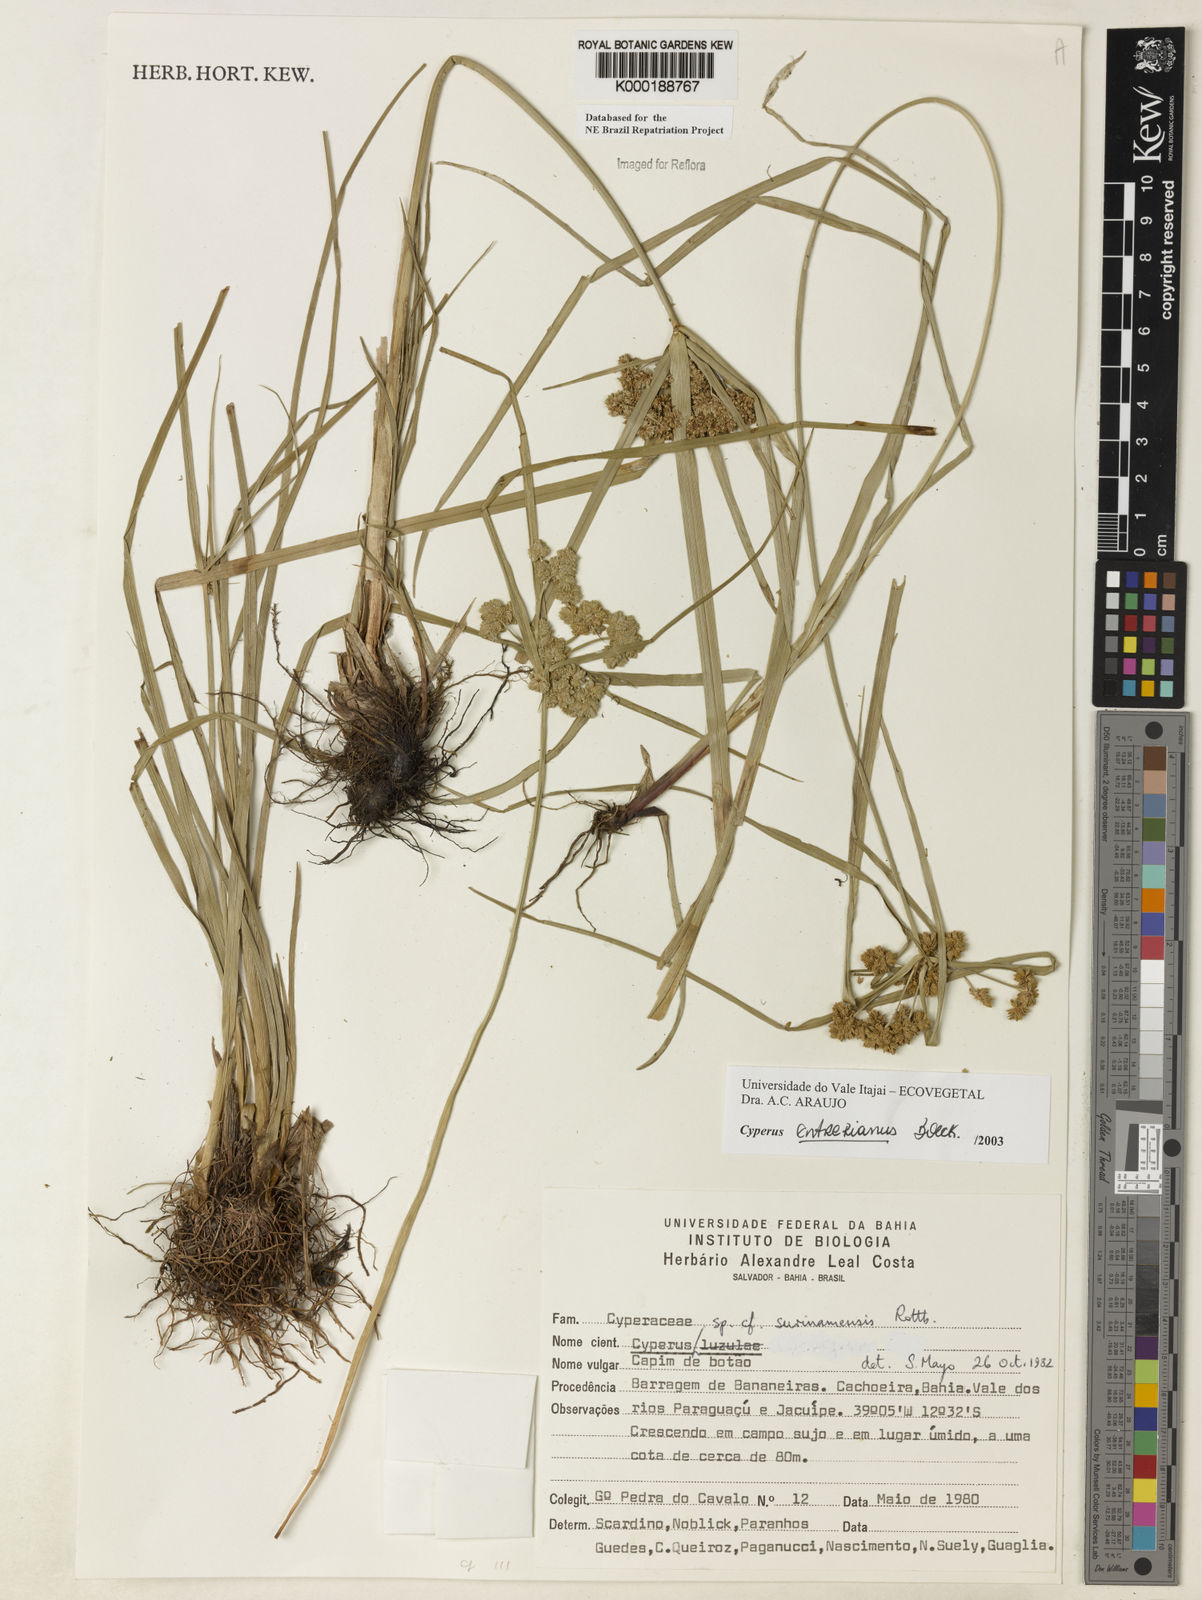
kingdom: Plantae
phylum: Tracheophyta
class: Liliopsida
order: Poales
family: Cyperaceae
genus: Cyperus
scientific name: Cyperus entrerianus
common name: Woodrush flatsedge
